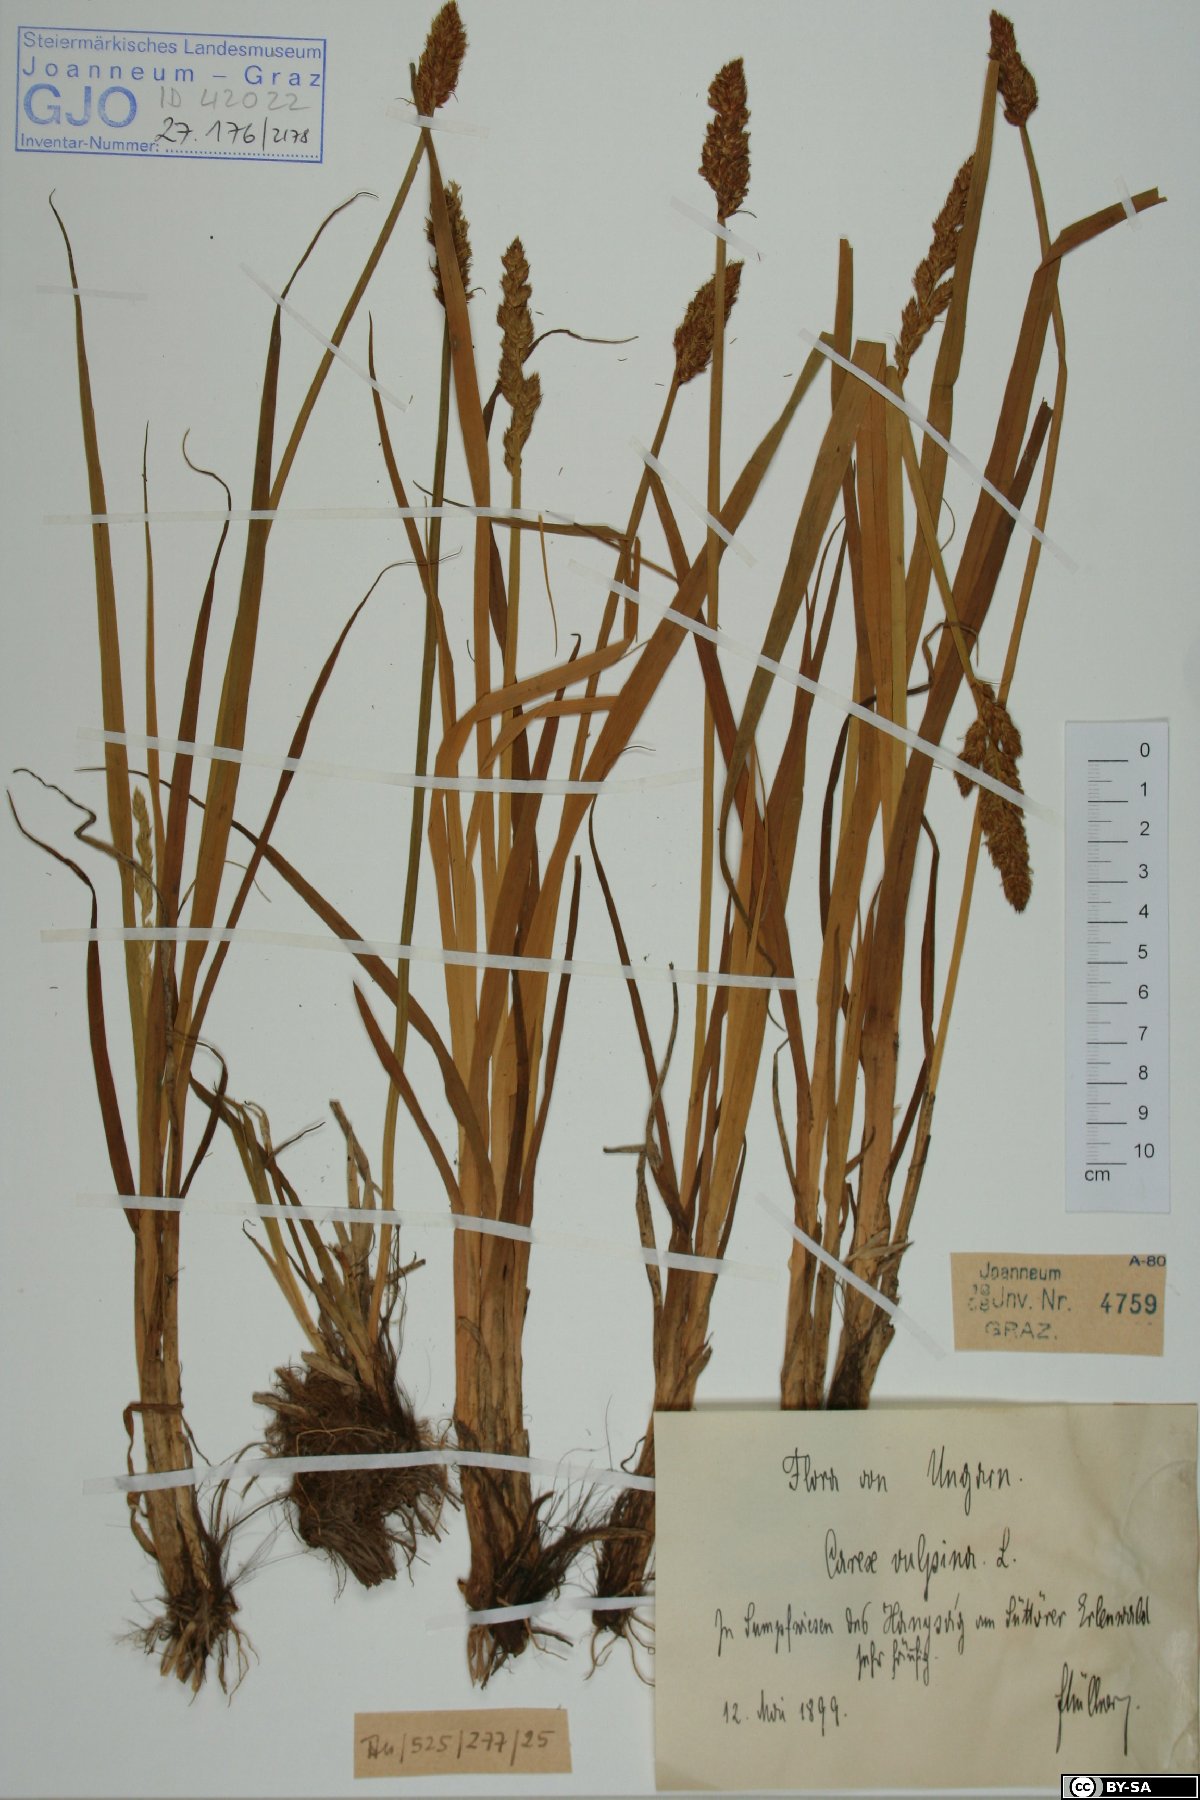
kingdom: Plantae
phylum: Tracheophyta
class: Liliopsida
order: Poales
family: Cyperaceae
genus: Carex
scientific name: Carex vulpina
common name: True fox-sedge
